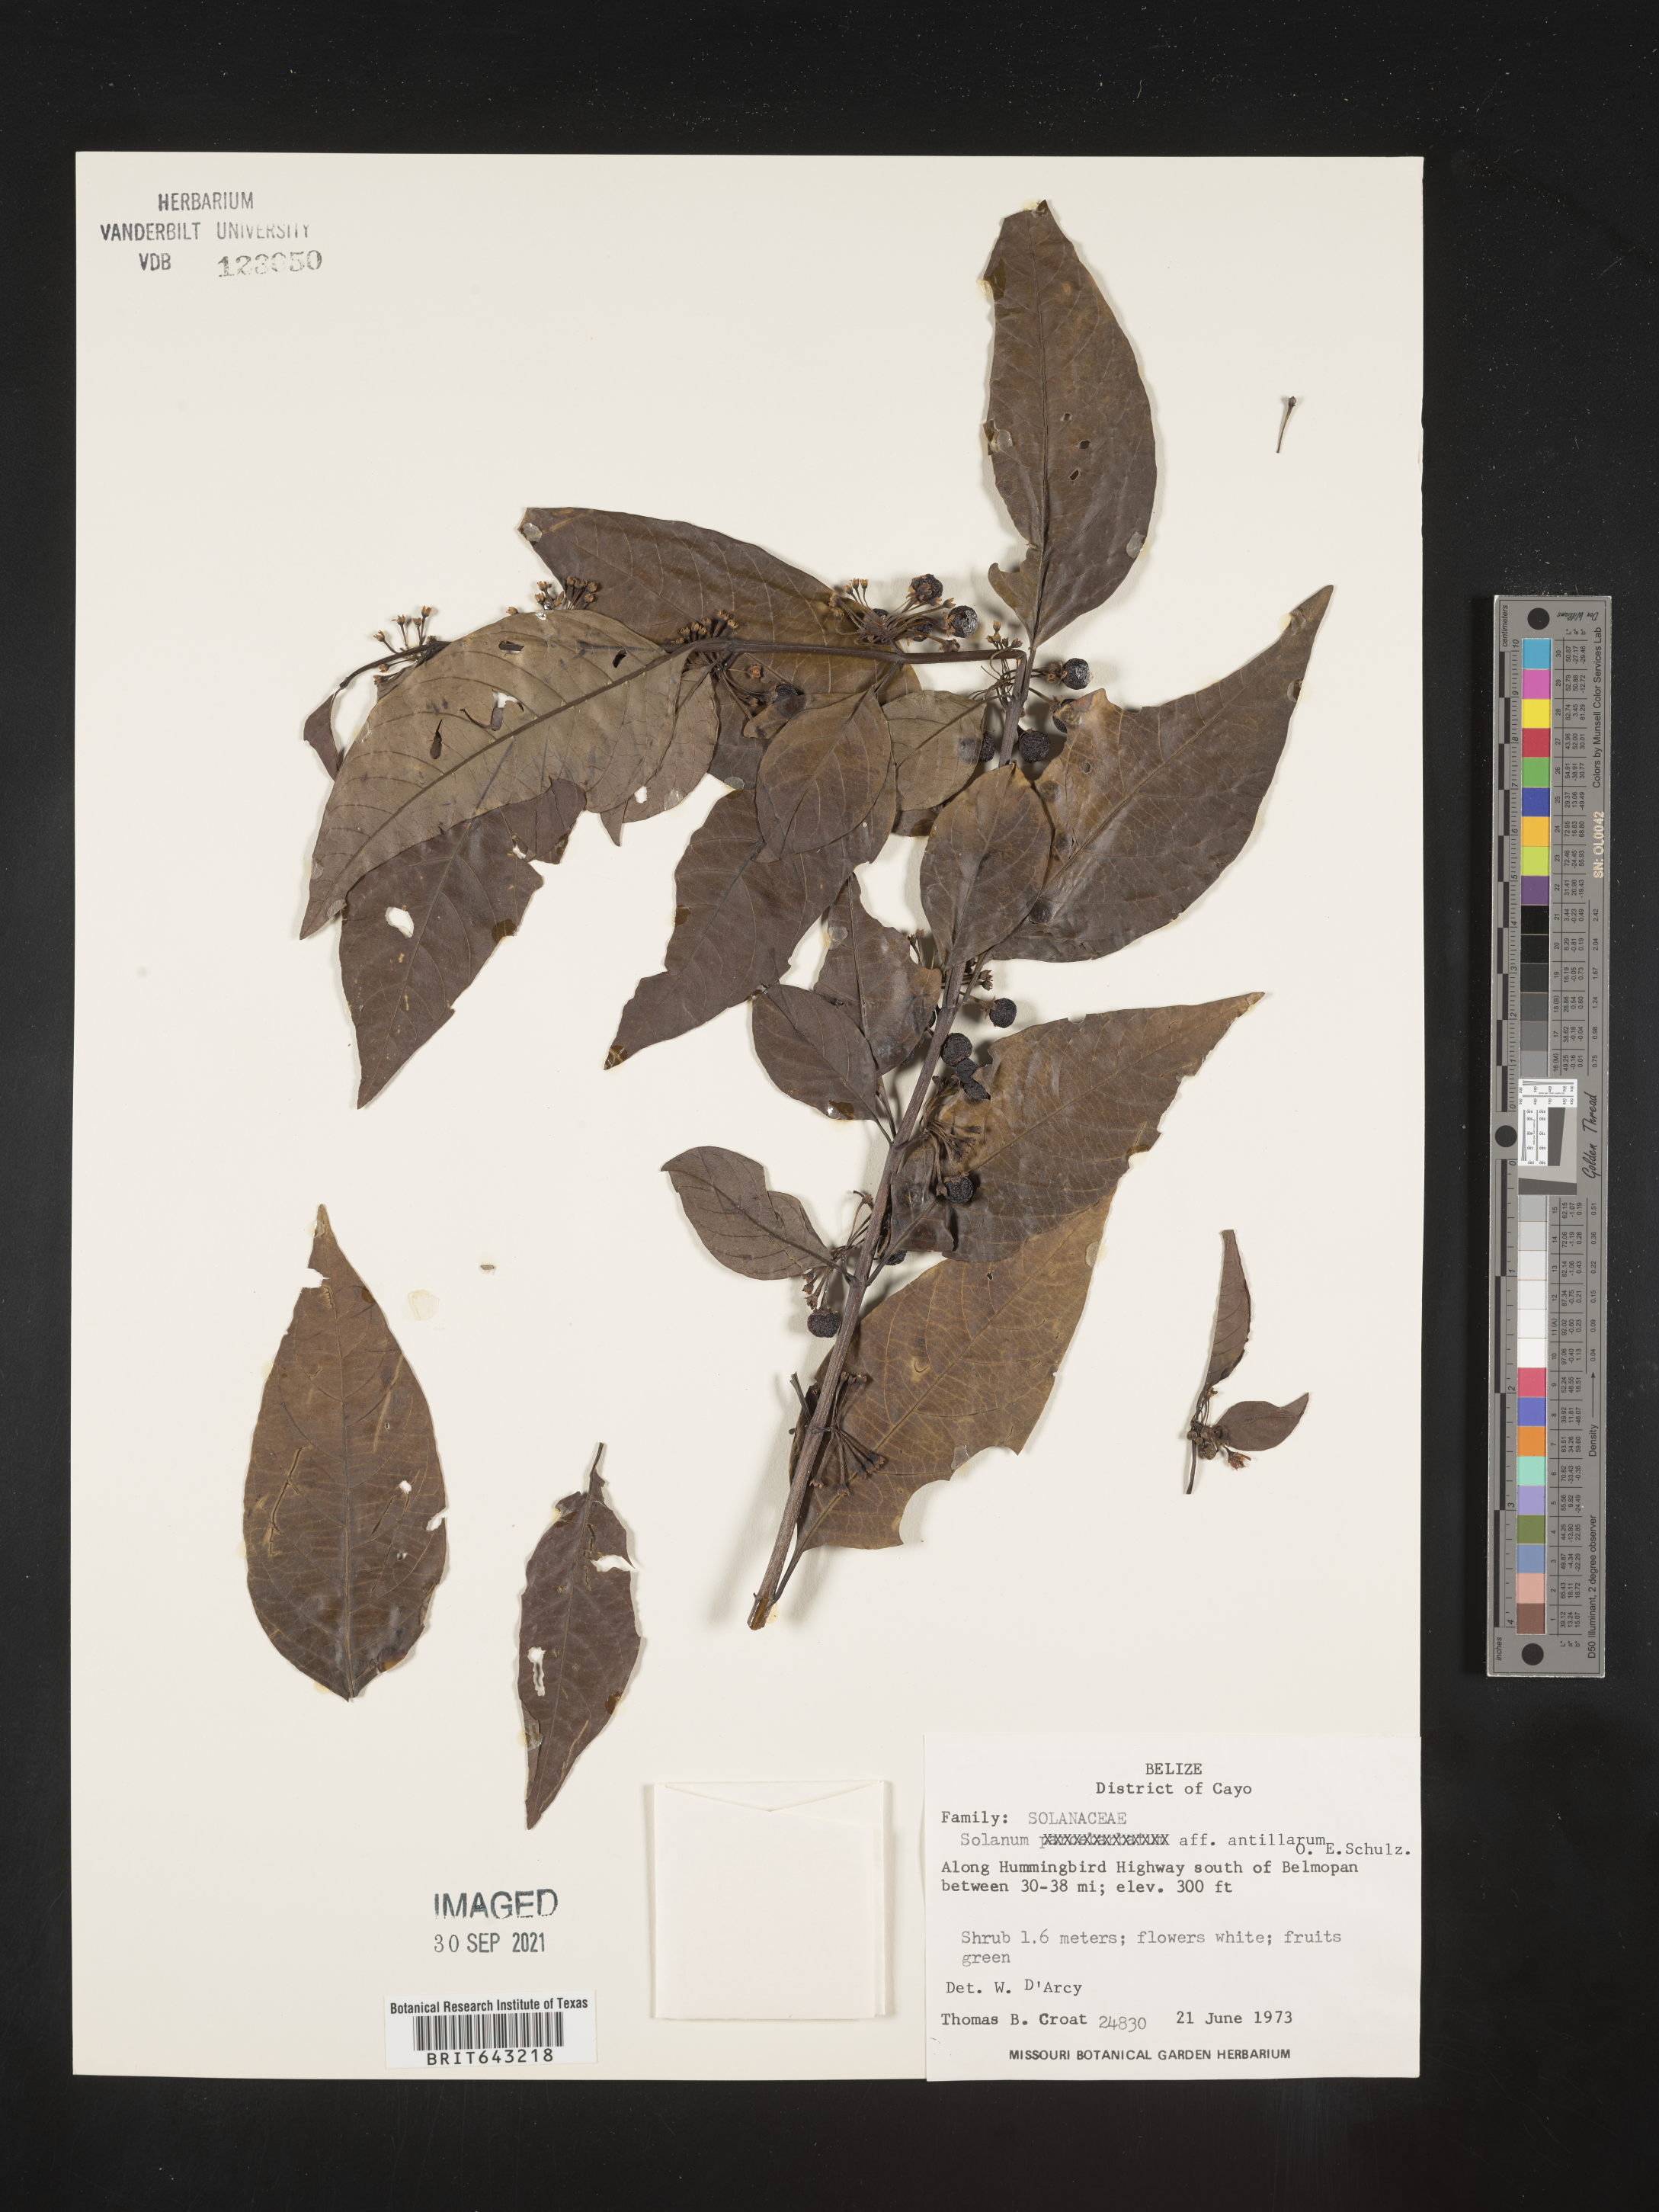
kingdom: Plantae
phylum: Tracheophyta
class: Magnoliopsida
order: Solanales
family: Solanaceae
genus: Solanum
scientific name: Solanum
